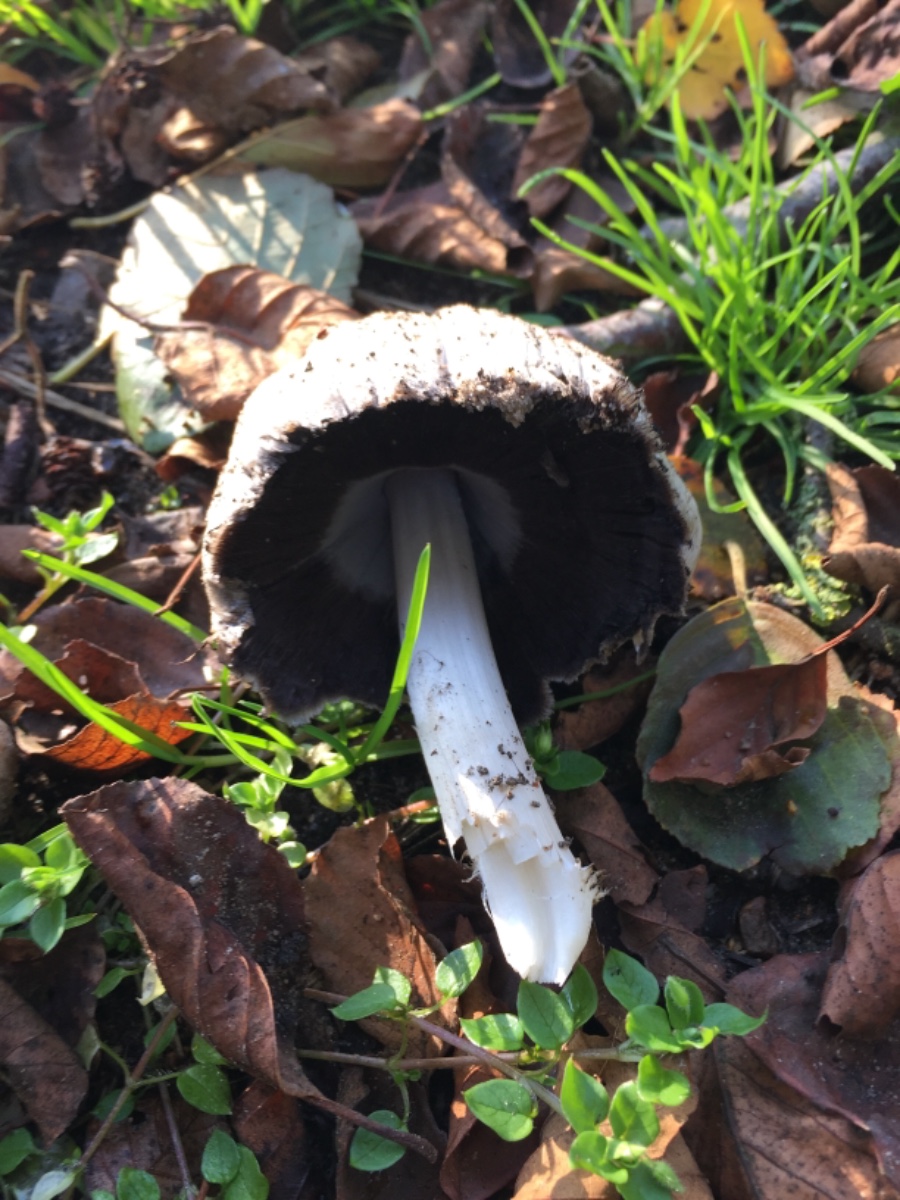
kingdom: Fungi
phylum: Basidiomycota
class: Agaricomycetes
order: Agaricales
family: Psathyrellaceae
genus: Coprinopsis
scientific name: Coprinopsis atramentaria
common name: almindelig blækhat
